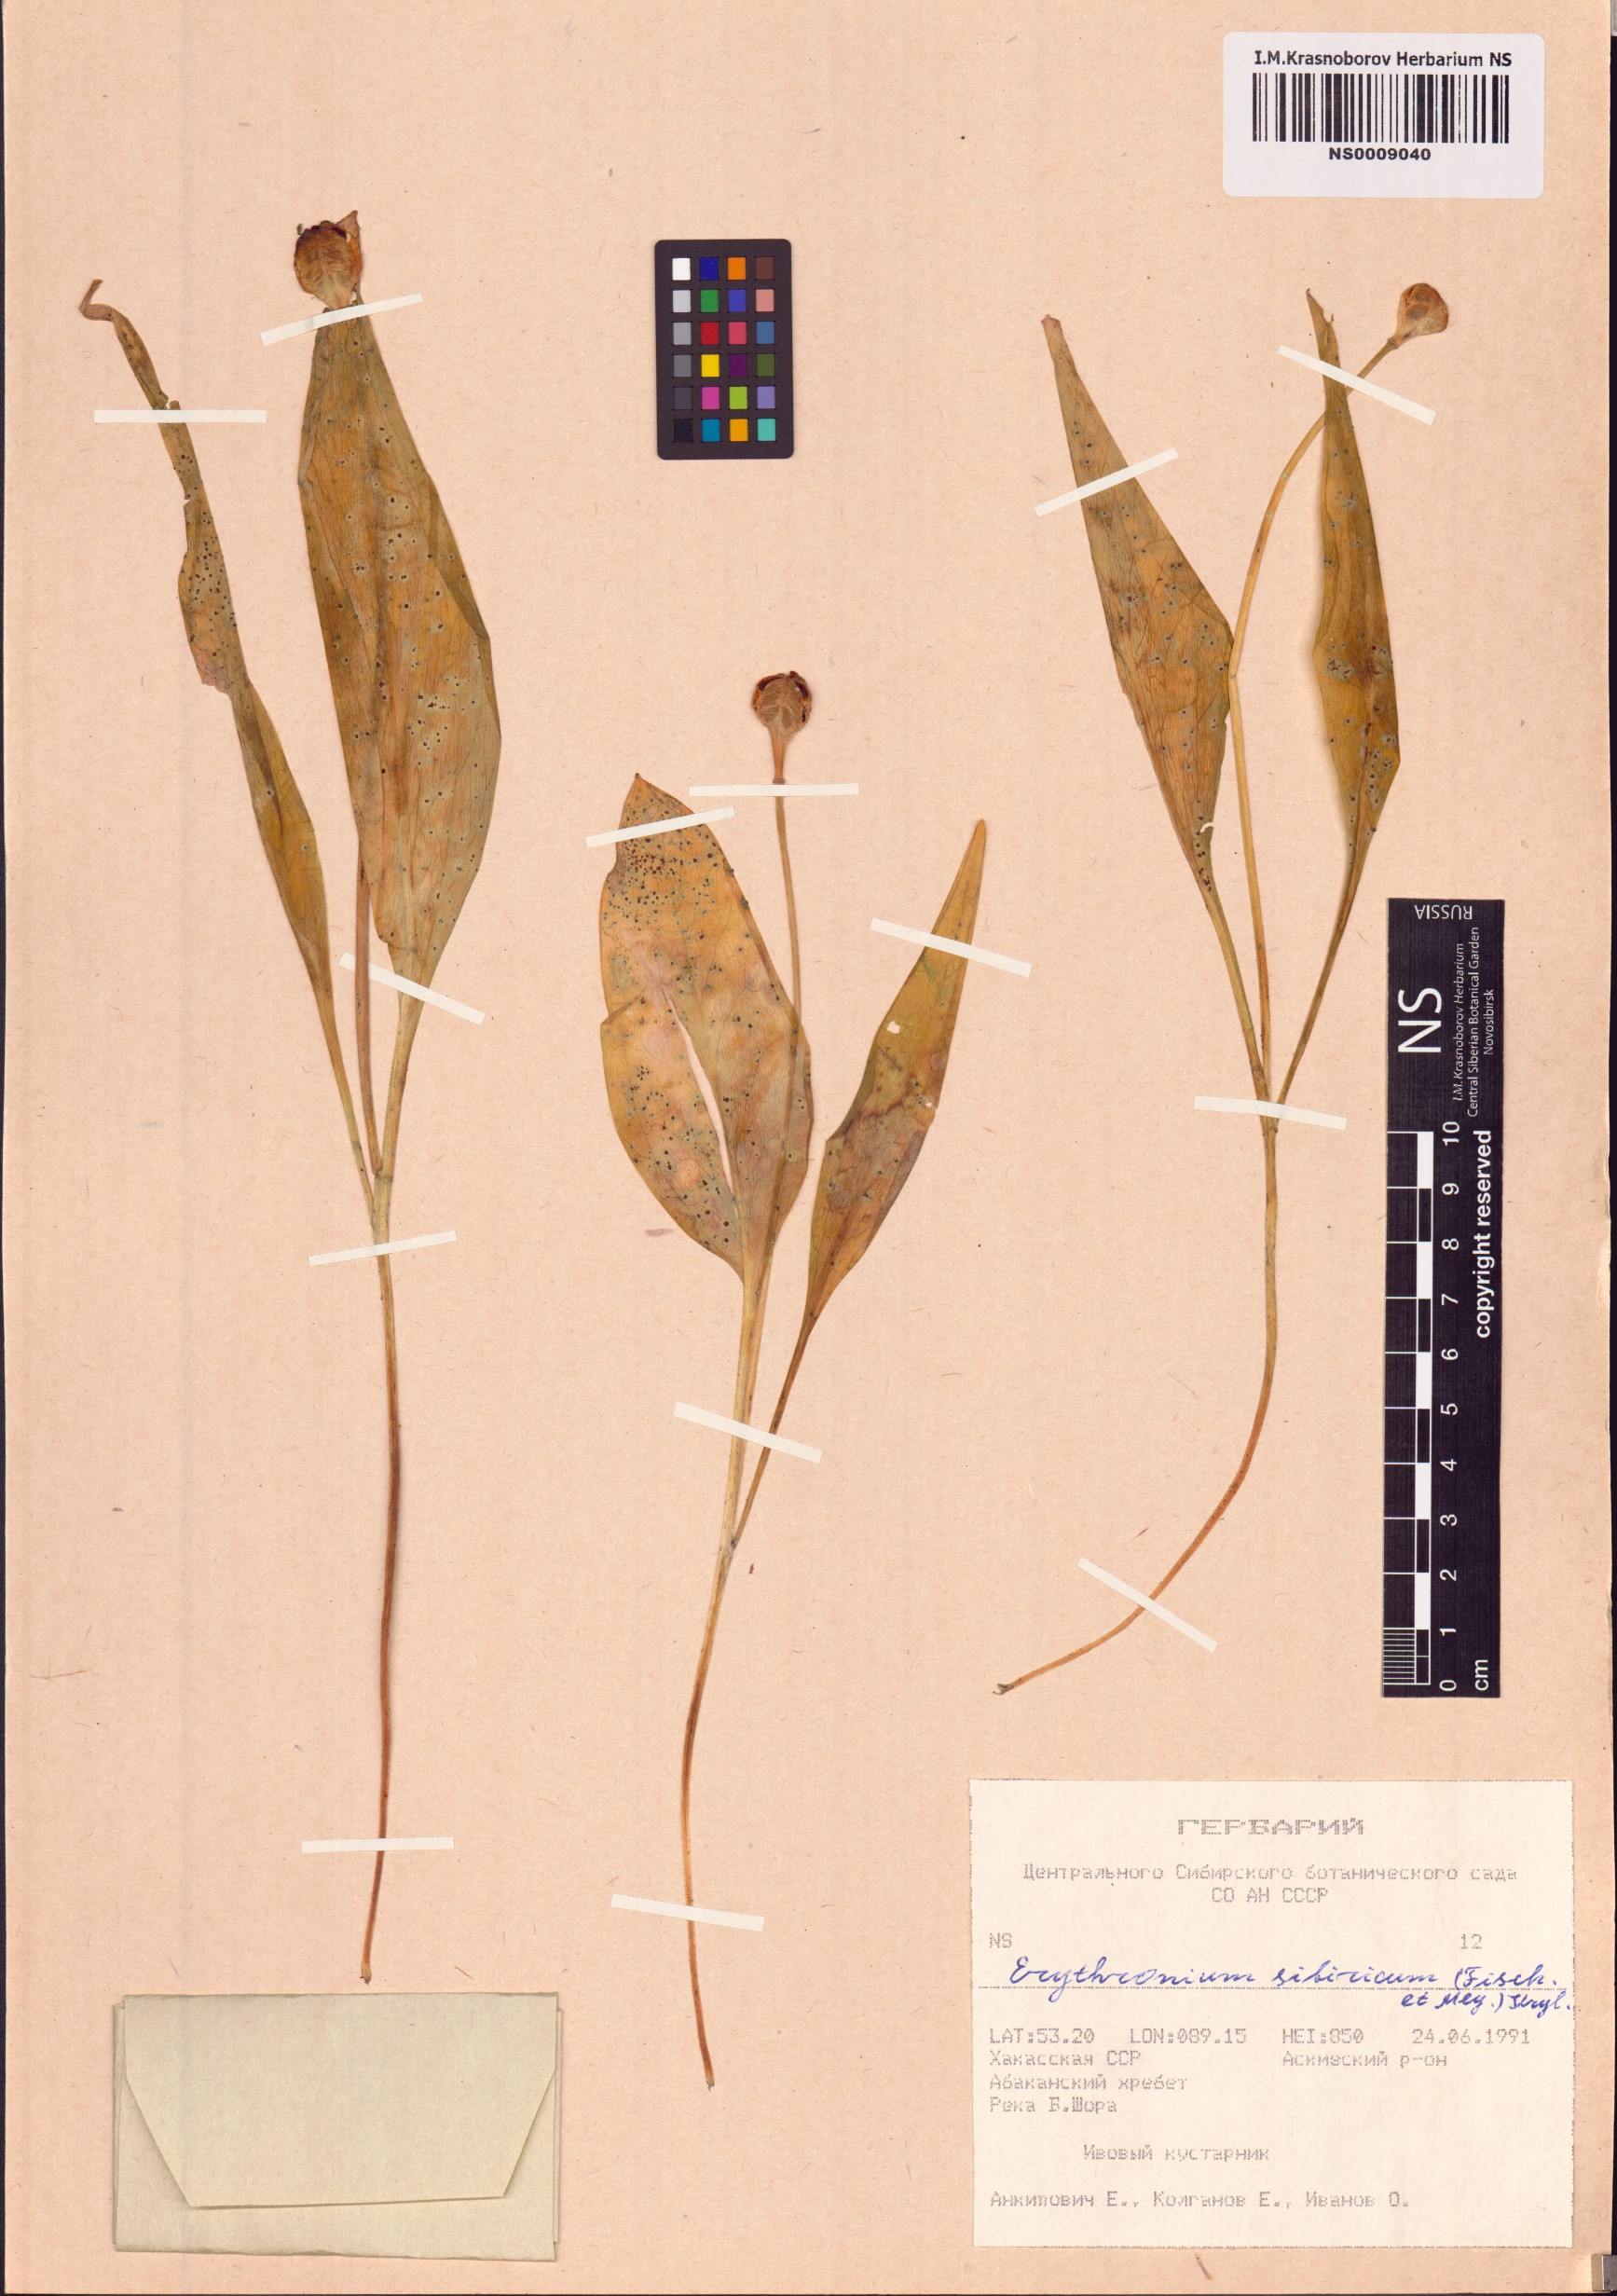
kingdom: Plantae
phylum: Tracheophyta
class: Liliopsida
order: Liliales
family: Liliaceae
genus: Erythronium
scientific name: Erythronium sibiricum
